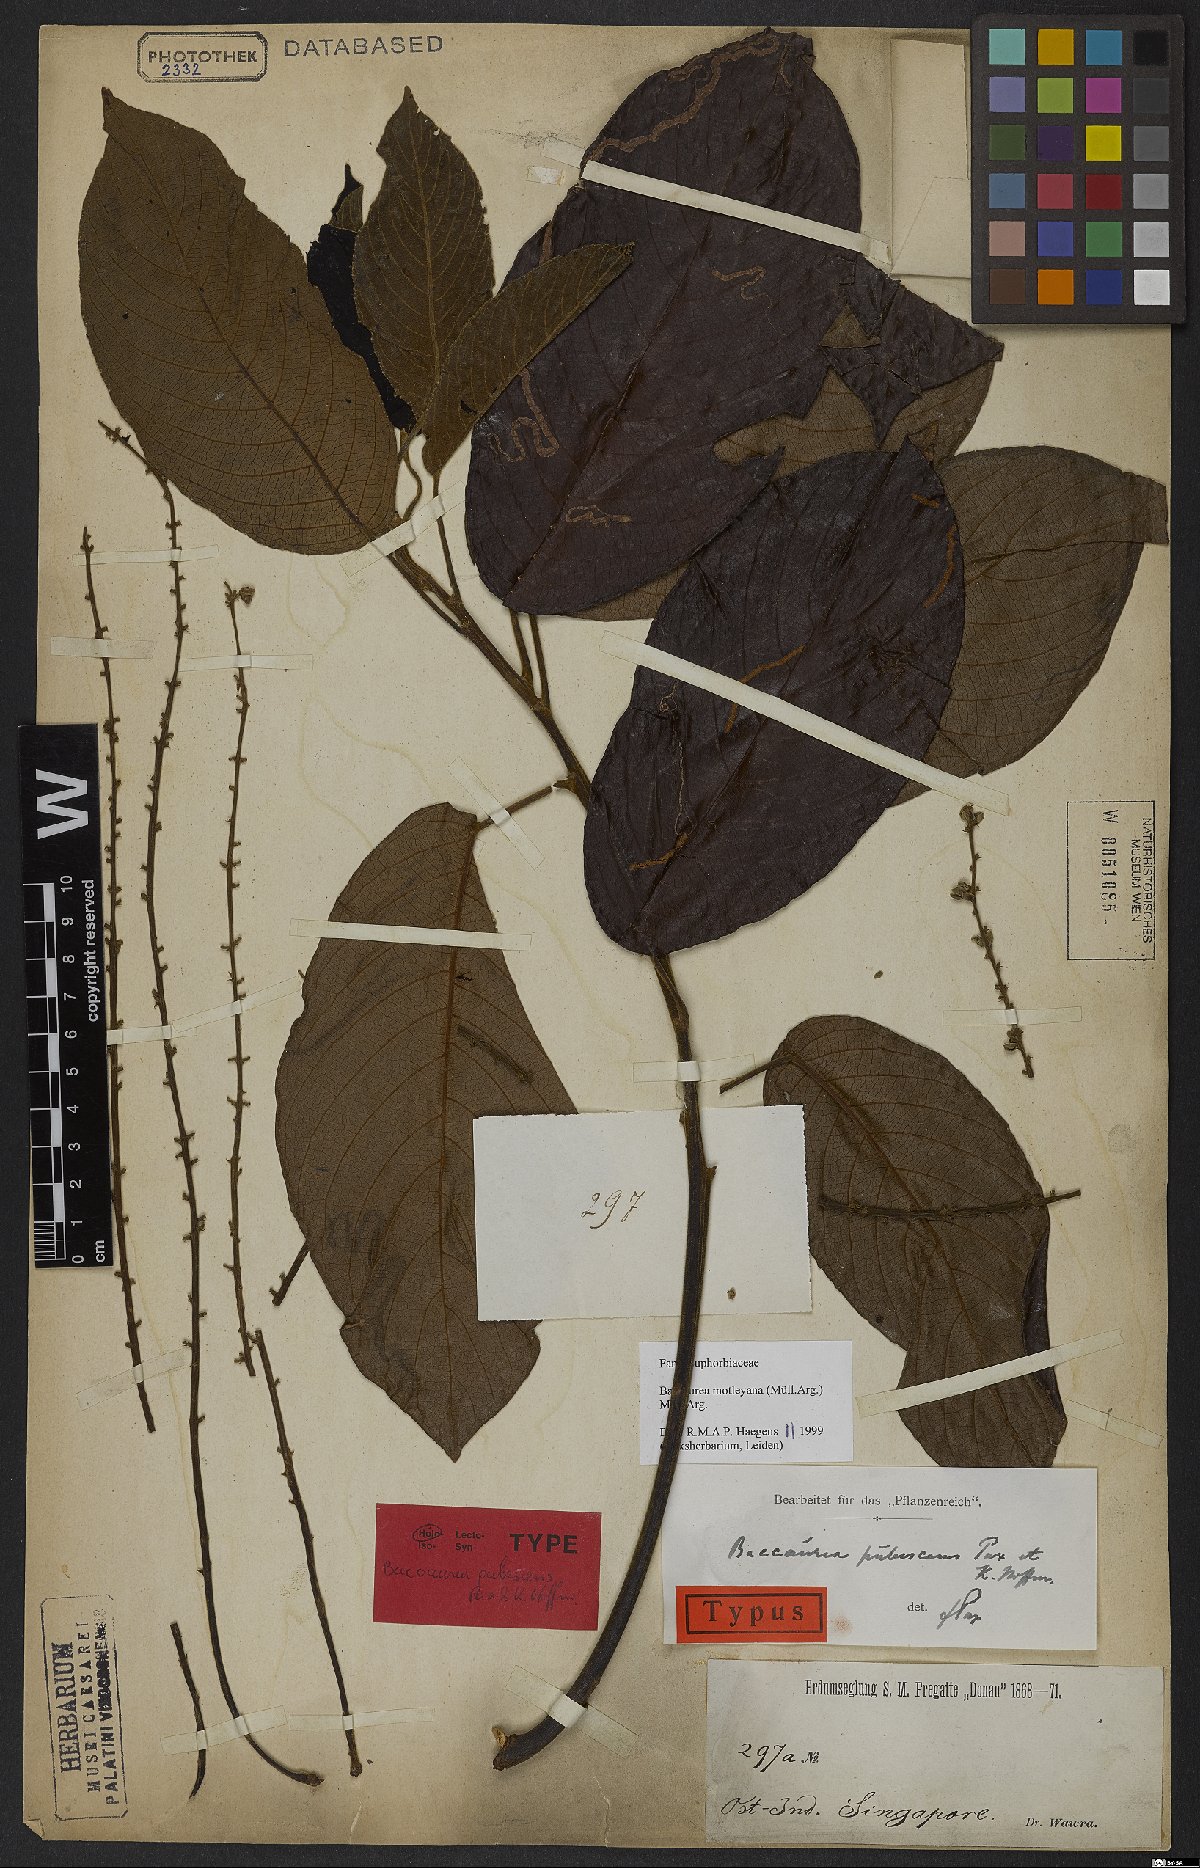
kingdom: Plantae
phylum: Tracheophyta
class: Magnoliopsida
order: Malpighiales
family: Phyllanthaceae
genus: Baccaurea
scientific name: Baccaurea motleyana
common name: Rambai
